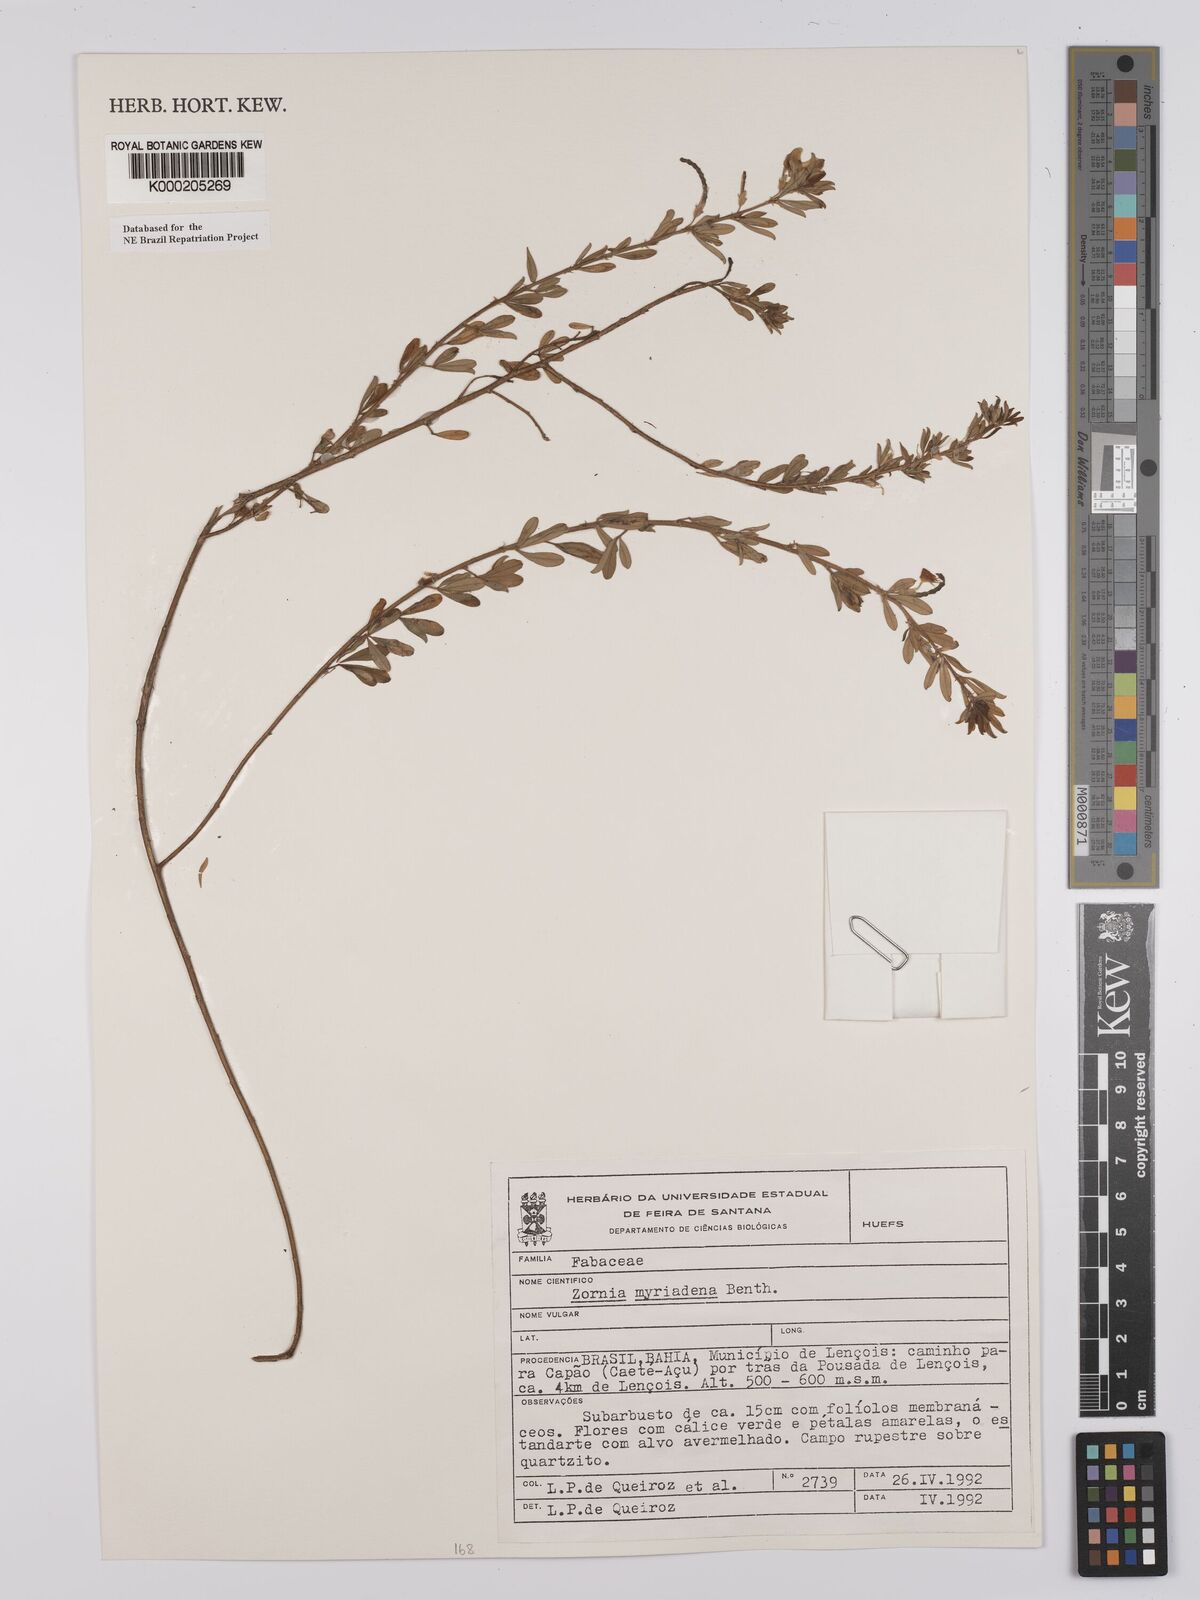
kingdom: Plantae
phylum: Tracheophyta
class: Magnoliopsida
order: Fabales
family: Fabaceae
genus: Zornia
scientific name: Zornia myriadena
